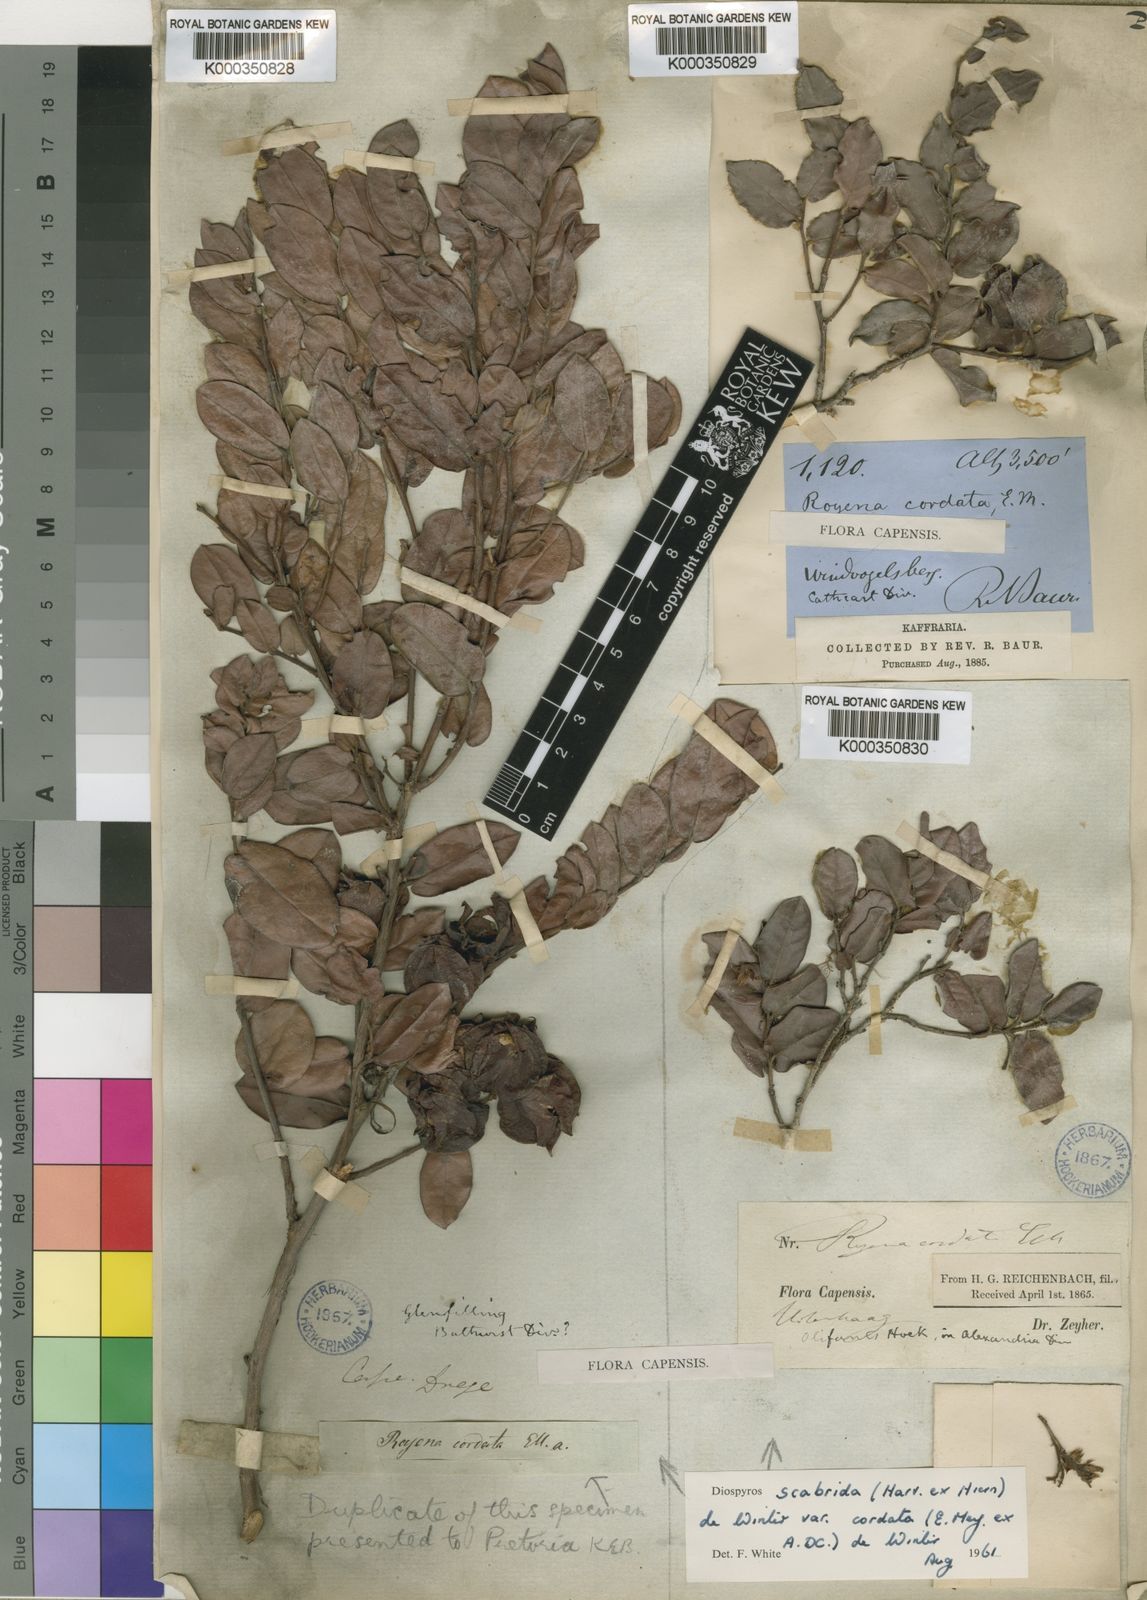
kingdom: Plantae
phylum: Tracheophyta
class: Magnoliopsida
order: Ericales
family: Ebenaceae
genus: Diospyros
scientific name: Diospyros scabrida
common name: Coastal bladder-nut
